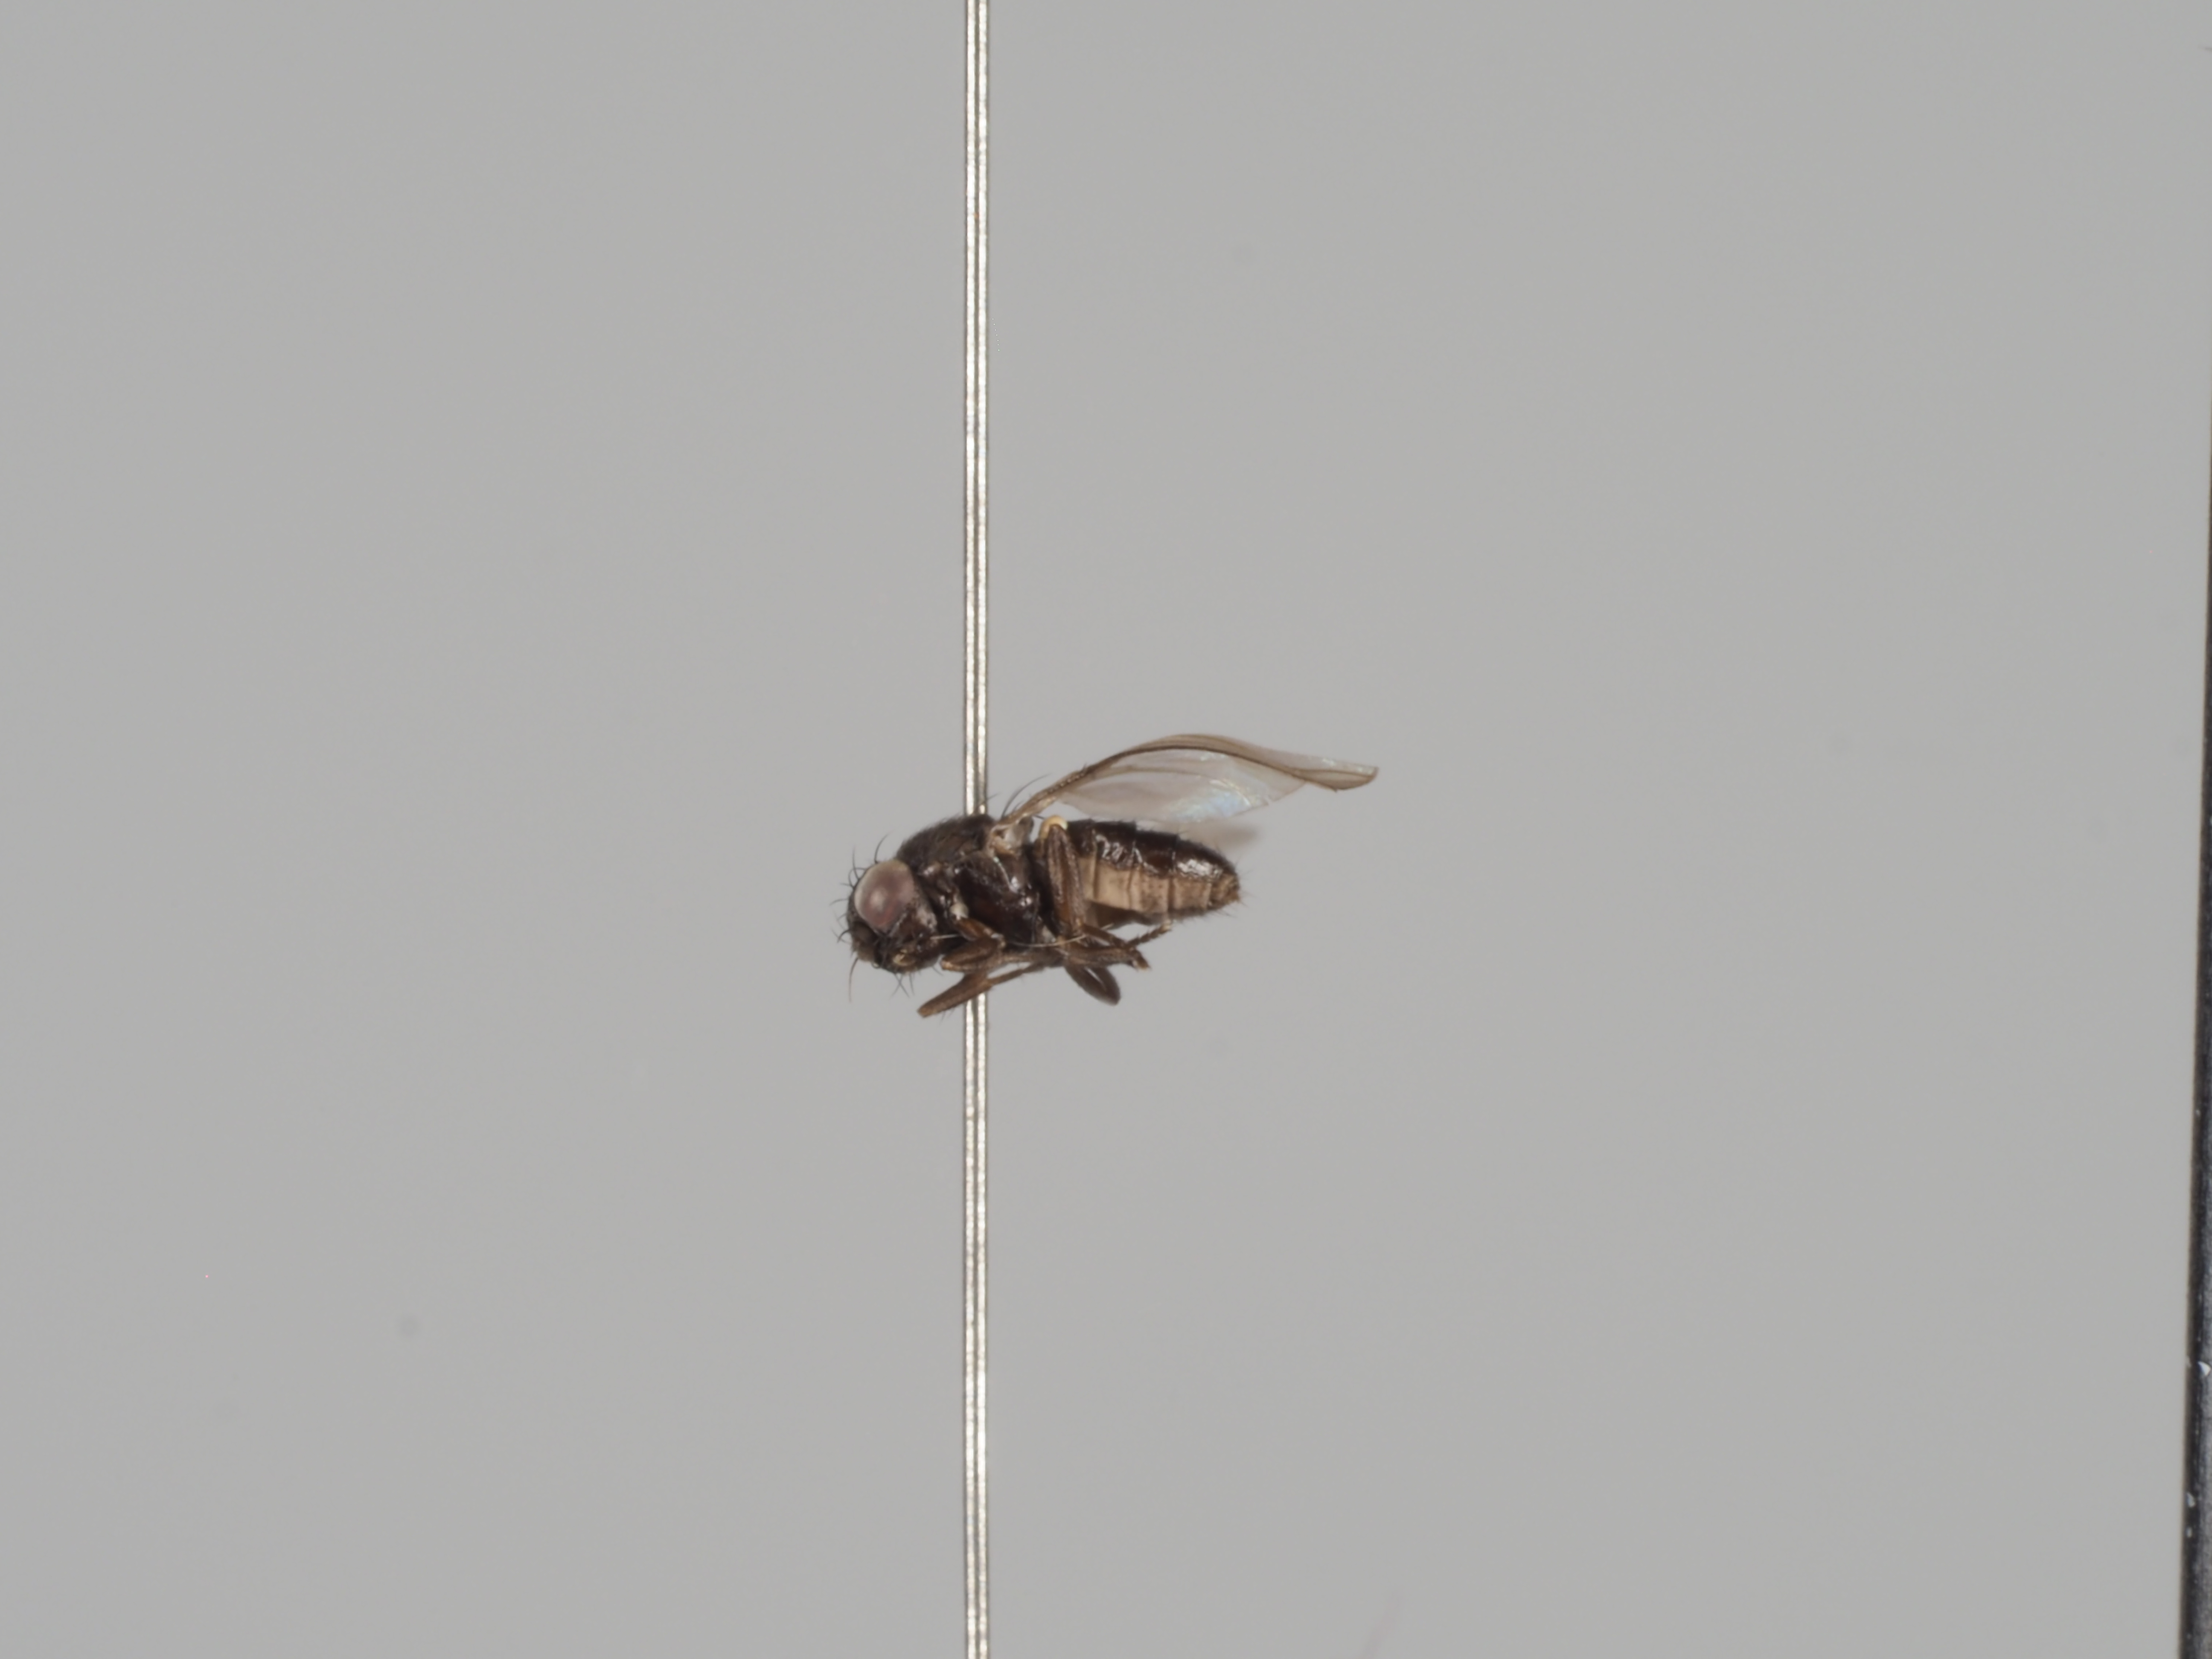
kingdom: Animalia
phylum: Arthropoda
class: Insecta
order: Diptera
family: Carnidae
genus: Meoneura
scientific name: Meoneura vagans
